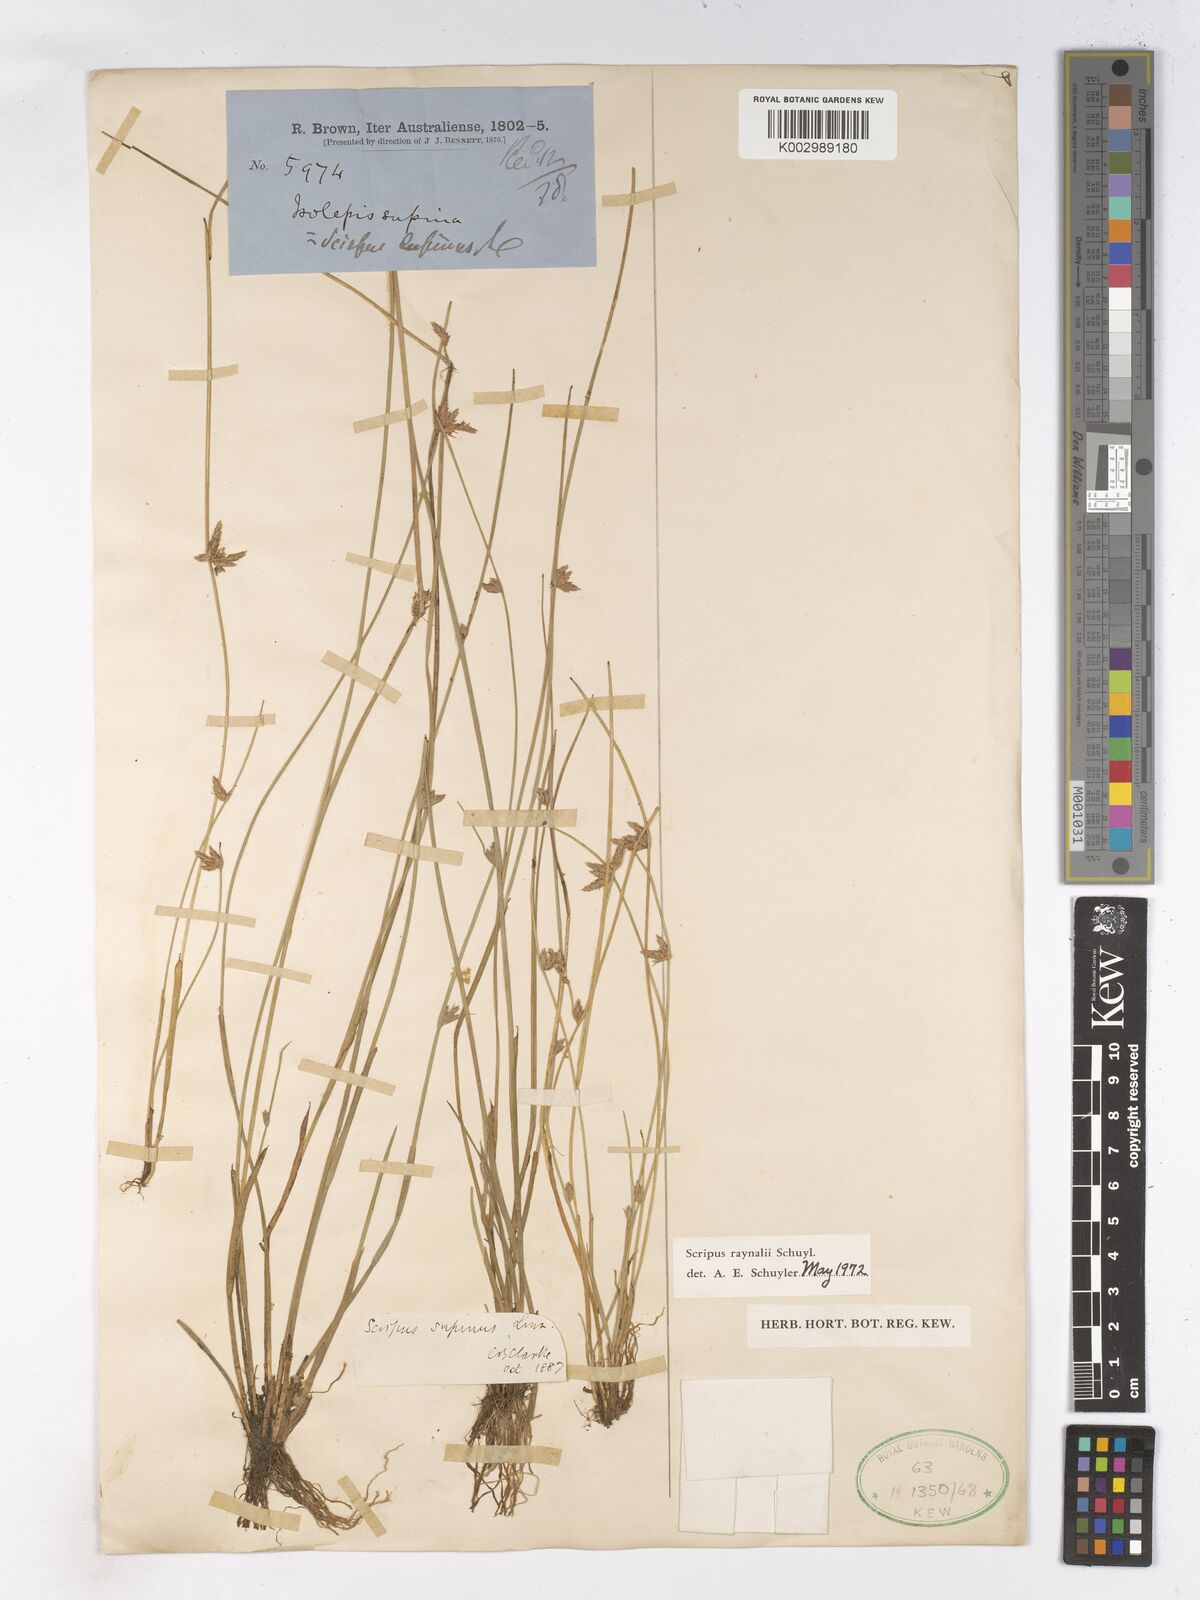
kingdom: Plantae
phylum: Tracheophyta
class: Liliopsida
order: Poales
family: Cyperaceae
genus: Schoenoplectiella
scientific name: Schoenoplectiella erecta
